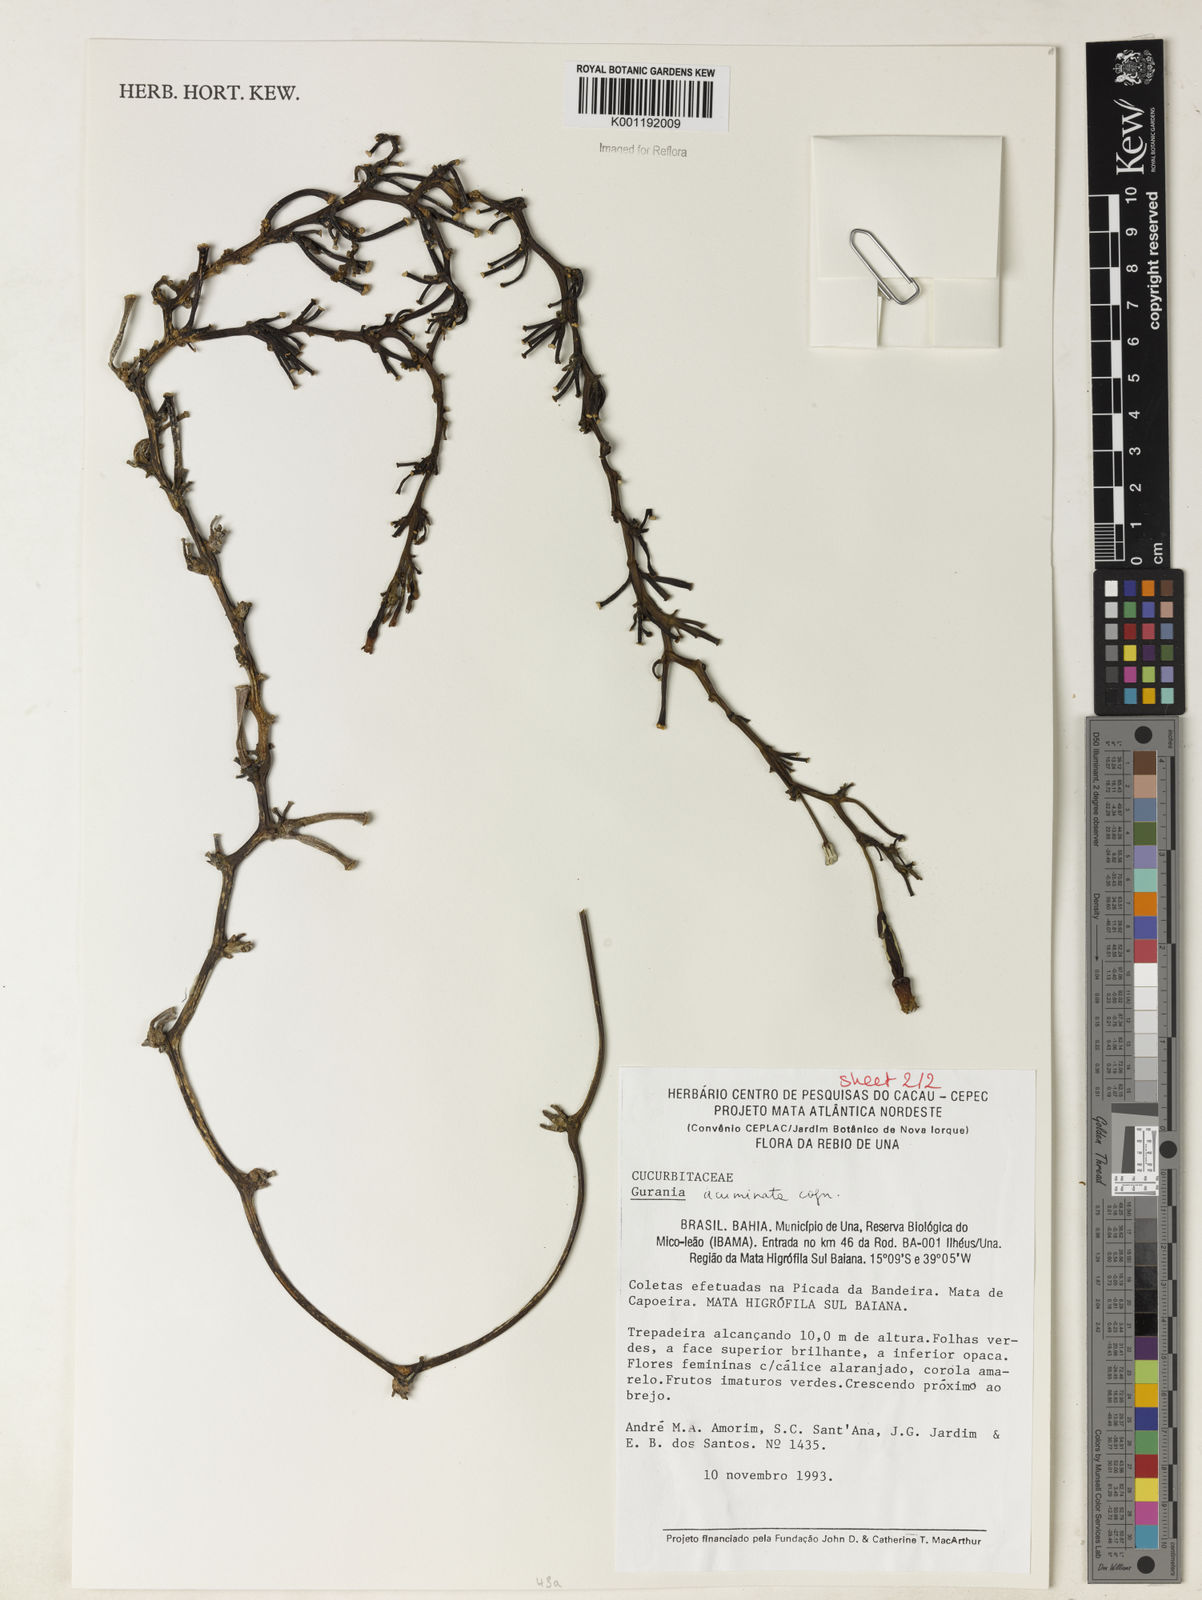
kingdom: Plantae
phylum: Tracheophyta
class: Magnoliopsida
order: Cucurbitales
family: Cucurbitaceae
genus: Gurania
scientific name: Gurania acuminata
